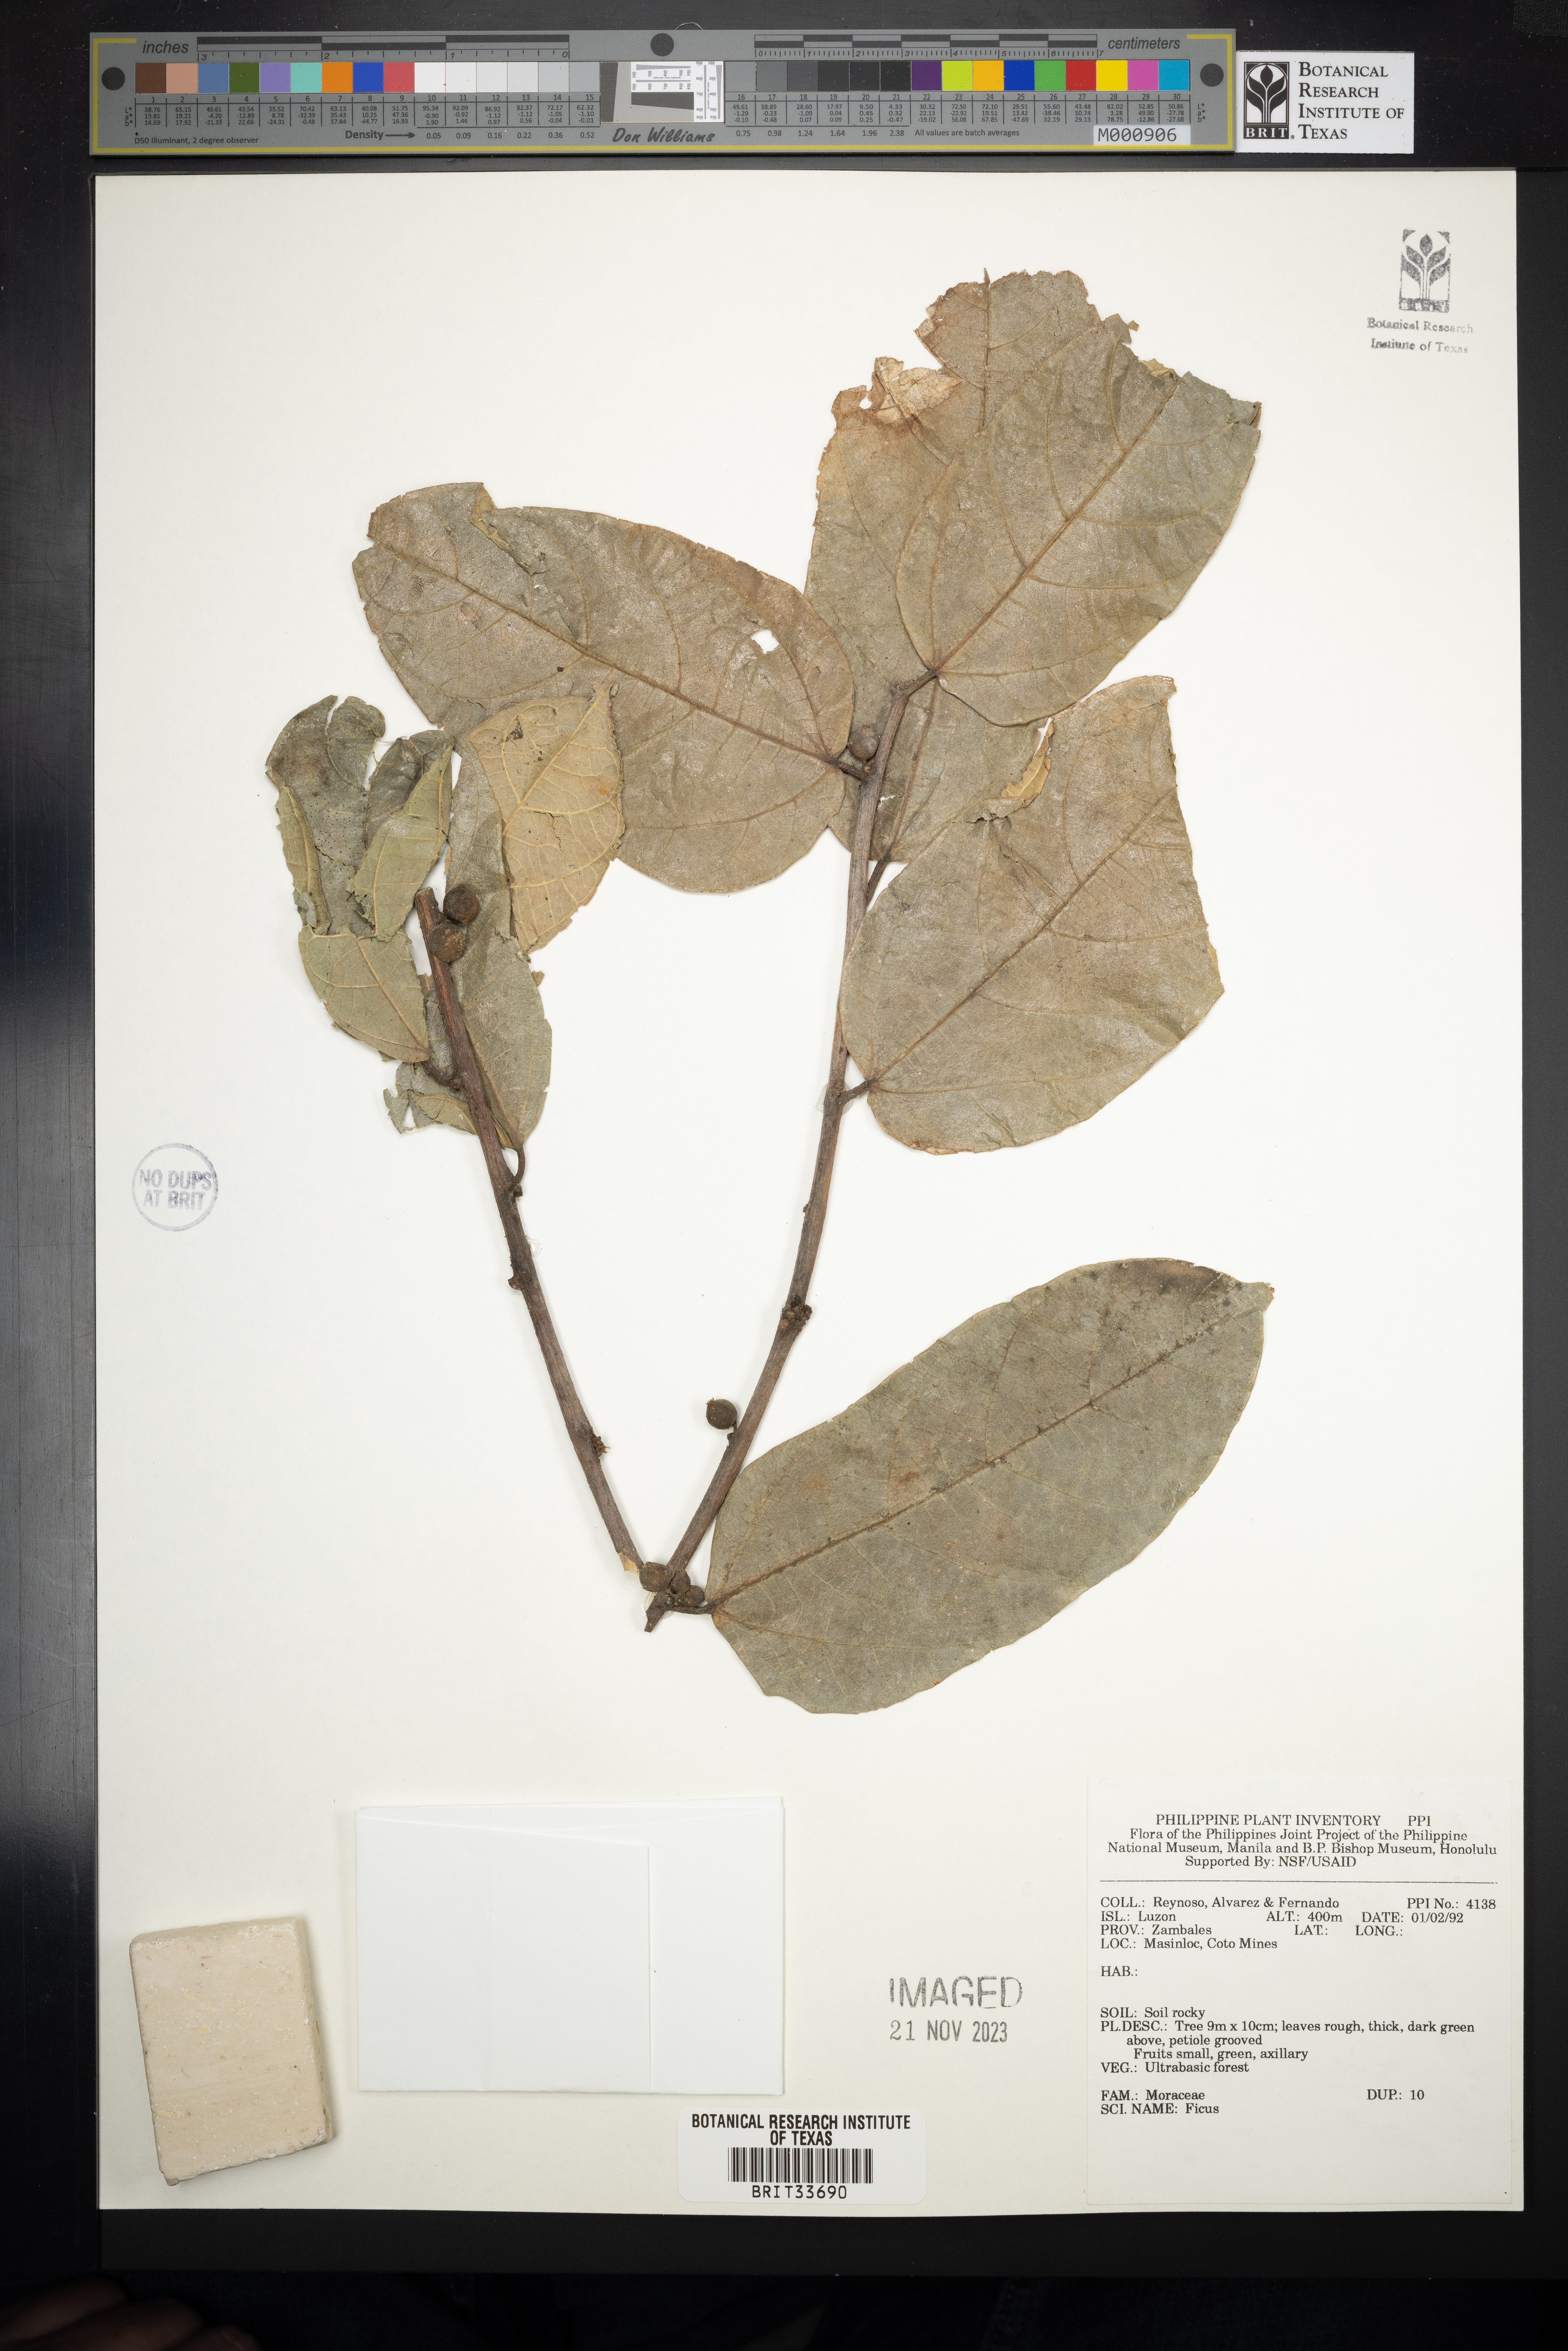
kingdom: Plantae
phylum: Tracheophyta
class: Magnoliopsida
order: Rosales
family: Moraceae
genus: Ficus
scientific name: Ficus
